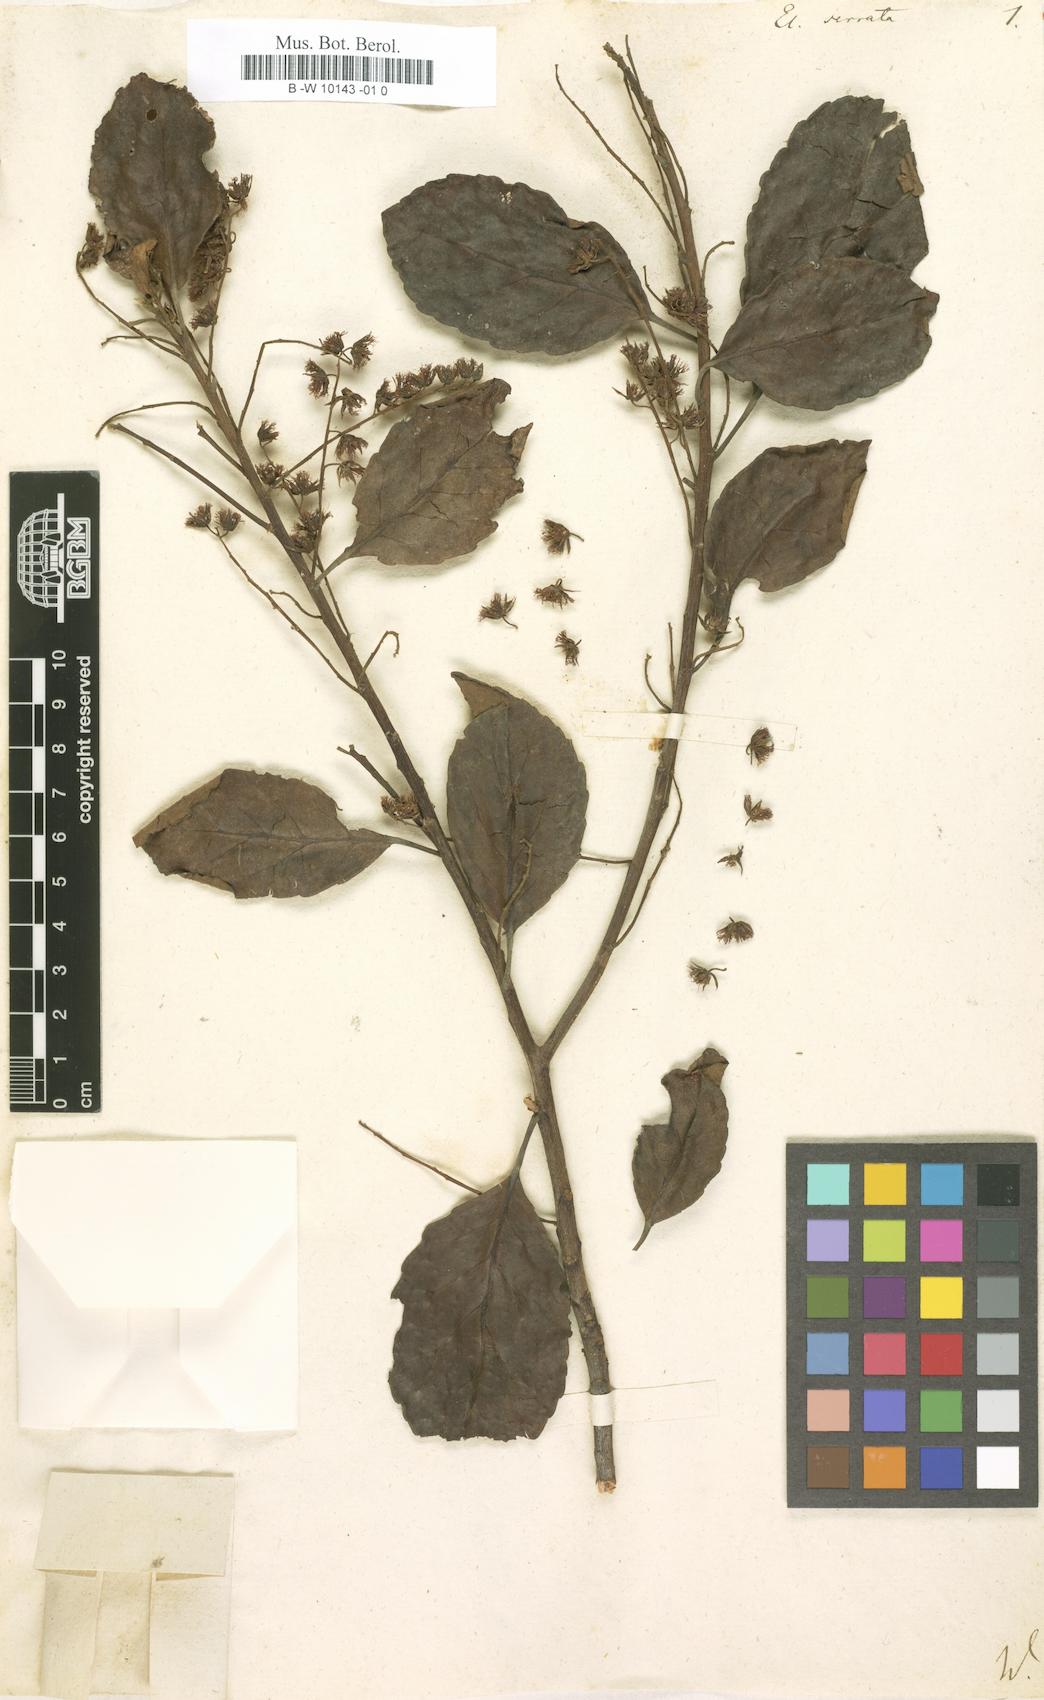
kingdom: Plantae
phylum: Tracheophyta
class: Magnoliopsida
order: Oxalidales
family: Elaeocarpaceae
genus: Elaeocarpus
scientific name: Elaeocarpus serratus
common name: Ceylon-olive
